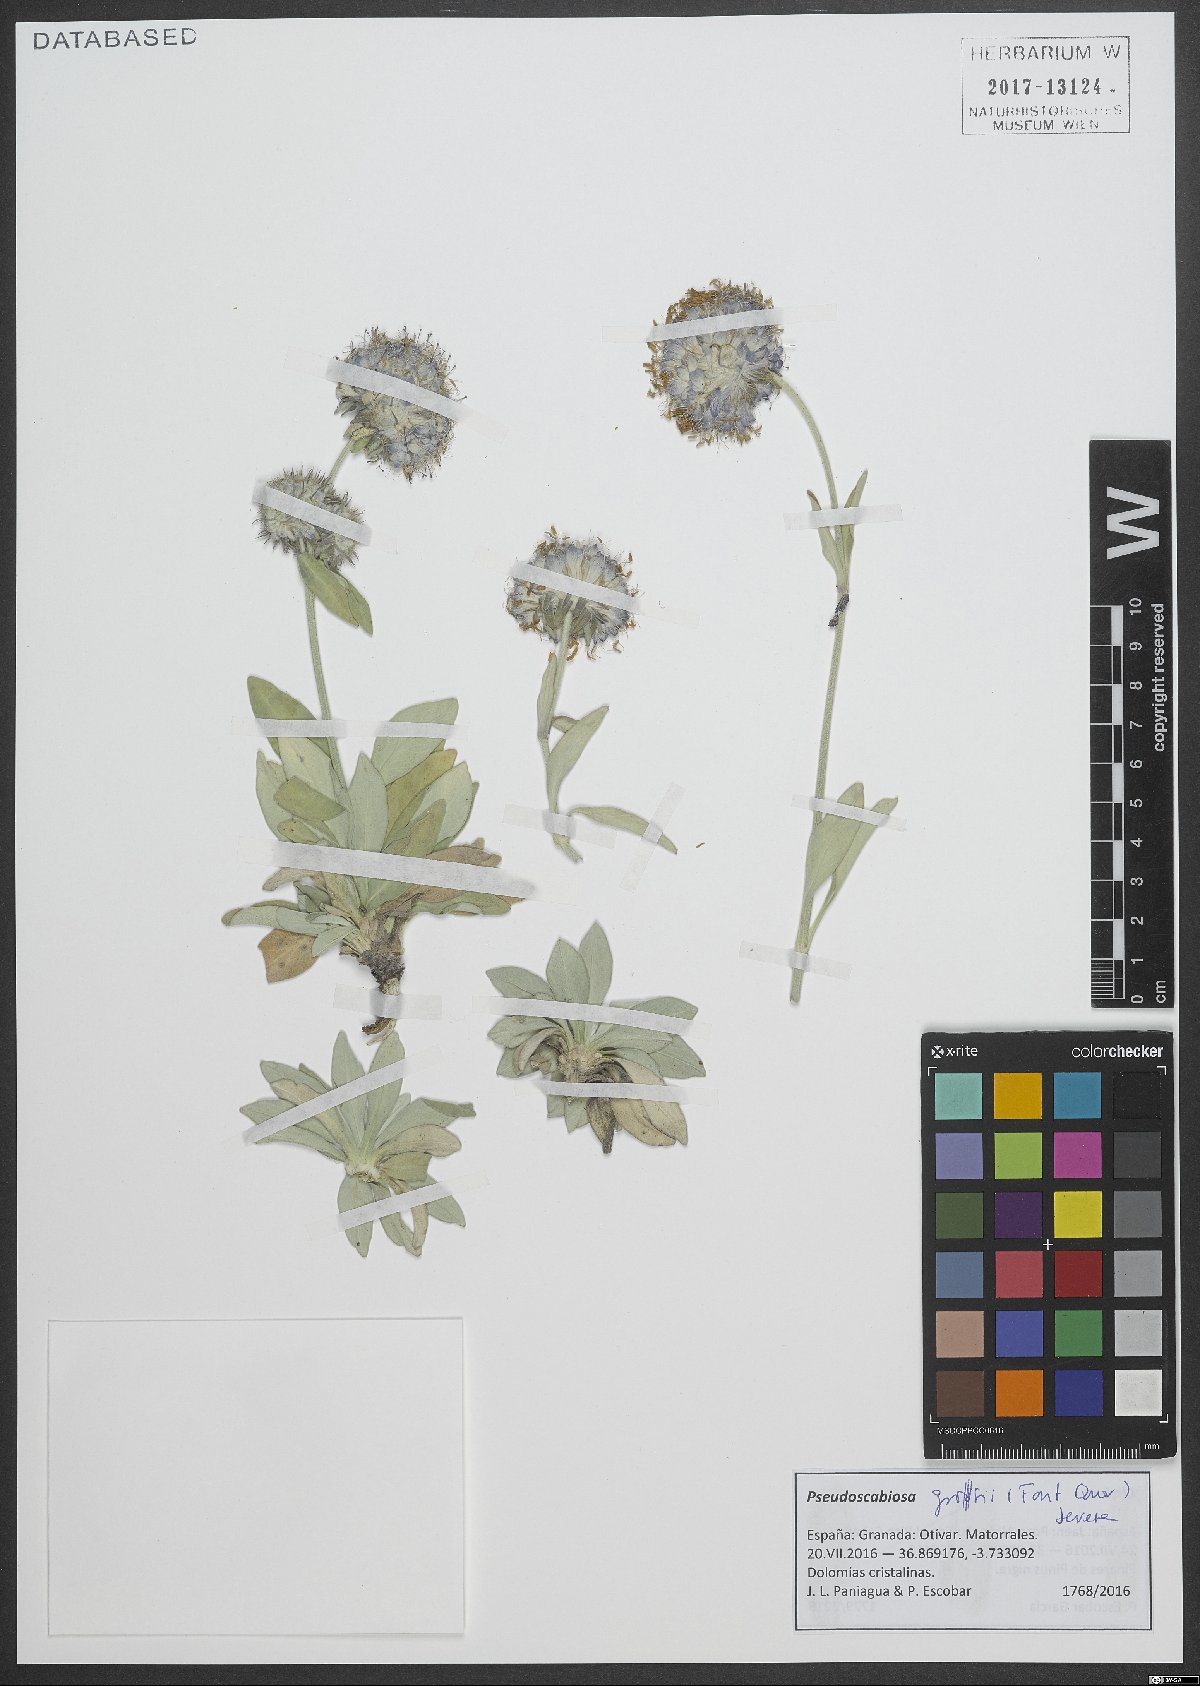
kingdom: Plantae
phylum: Tracheophyta
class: Magnoliopsida
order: Dipsacales
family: Caprifoliaceae
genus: Pseudoscabiosa
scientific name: Pseudoscabiosa grosii
